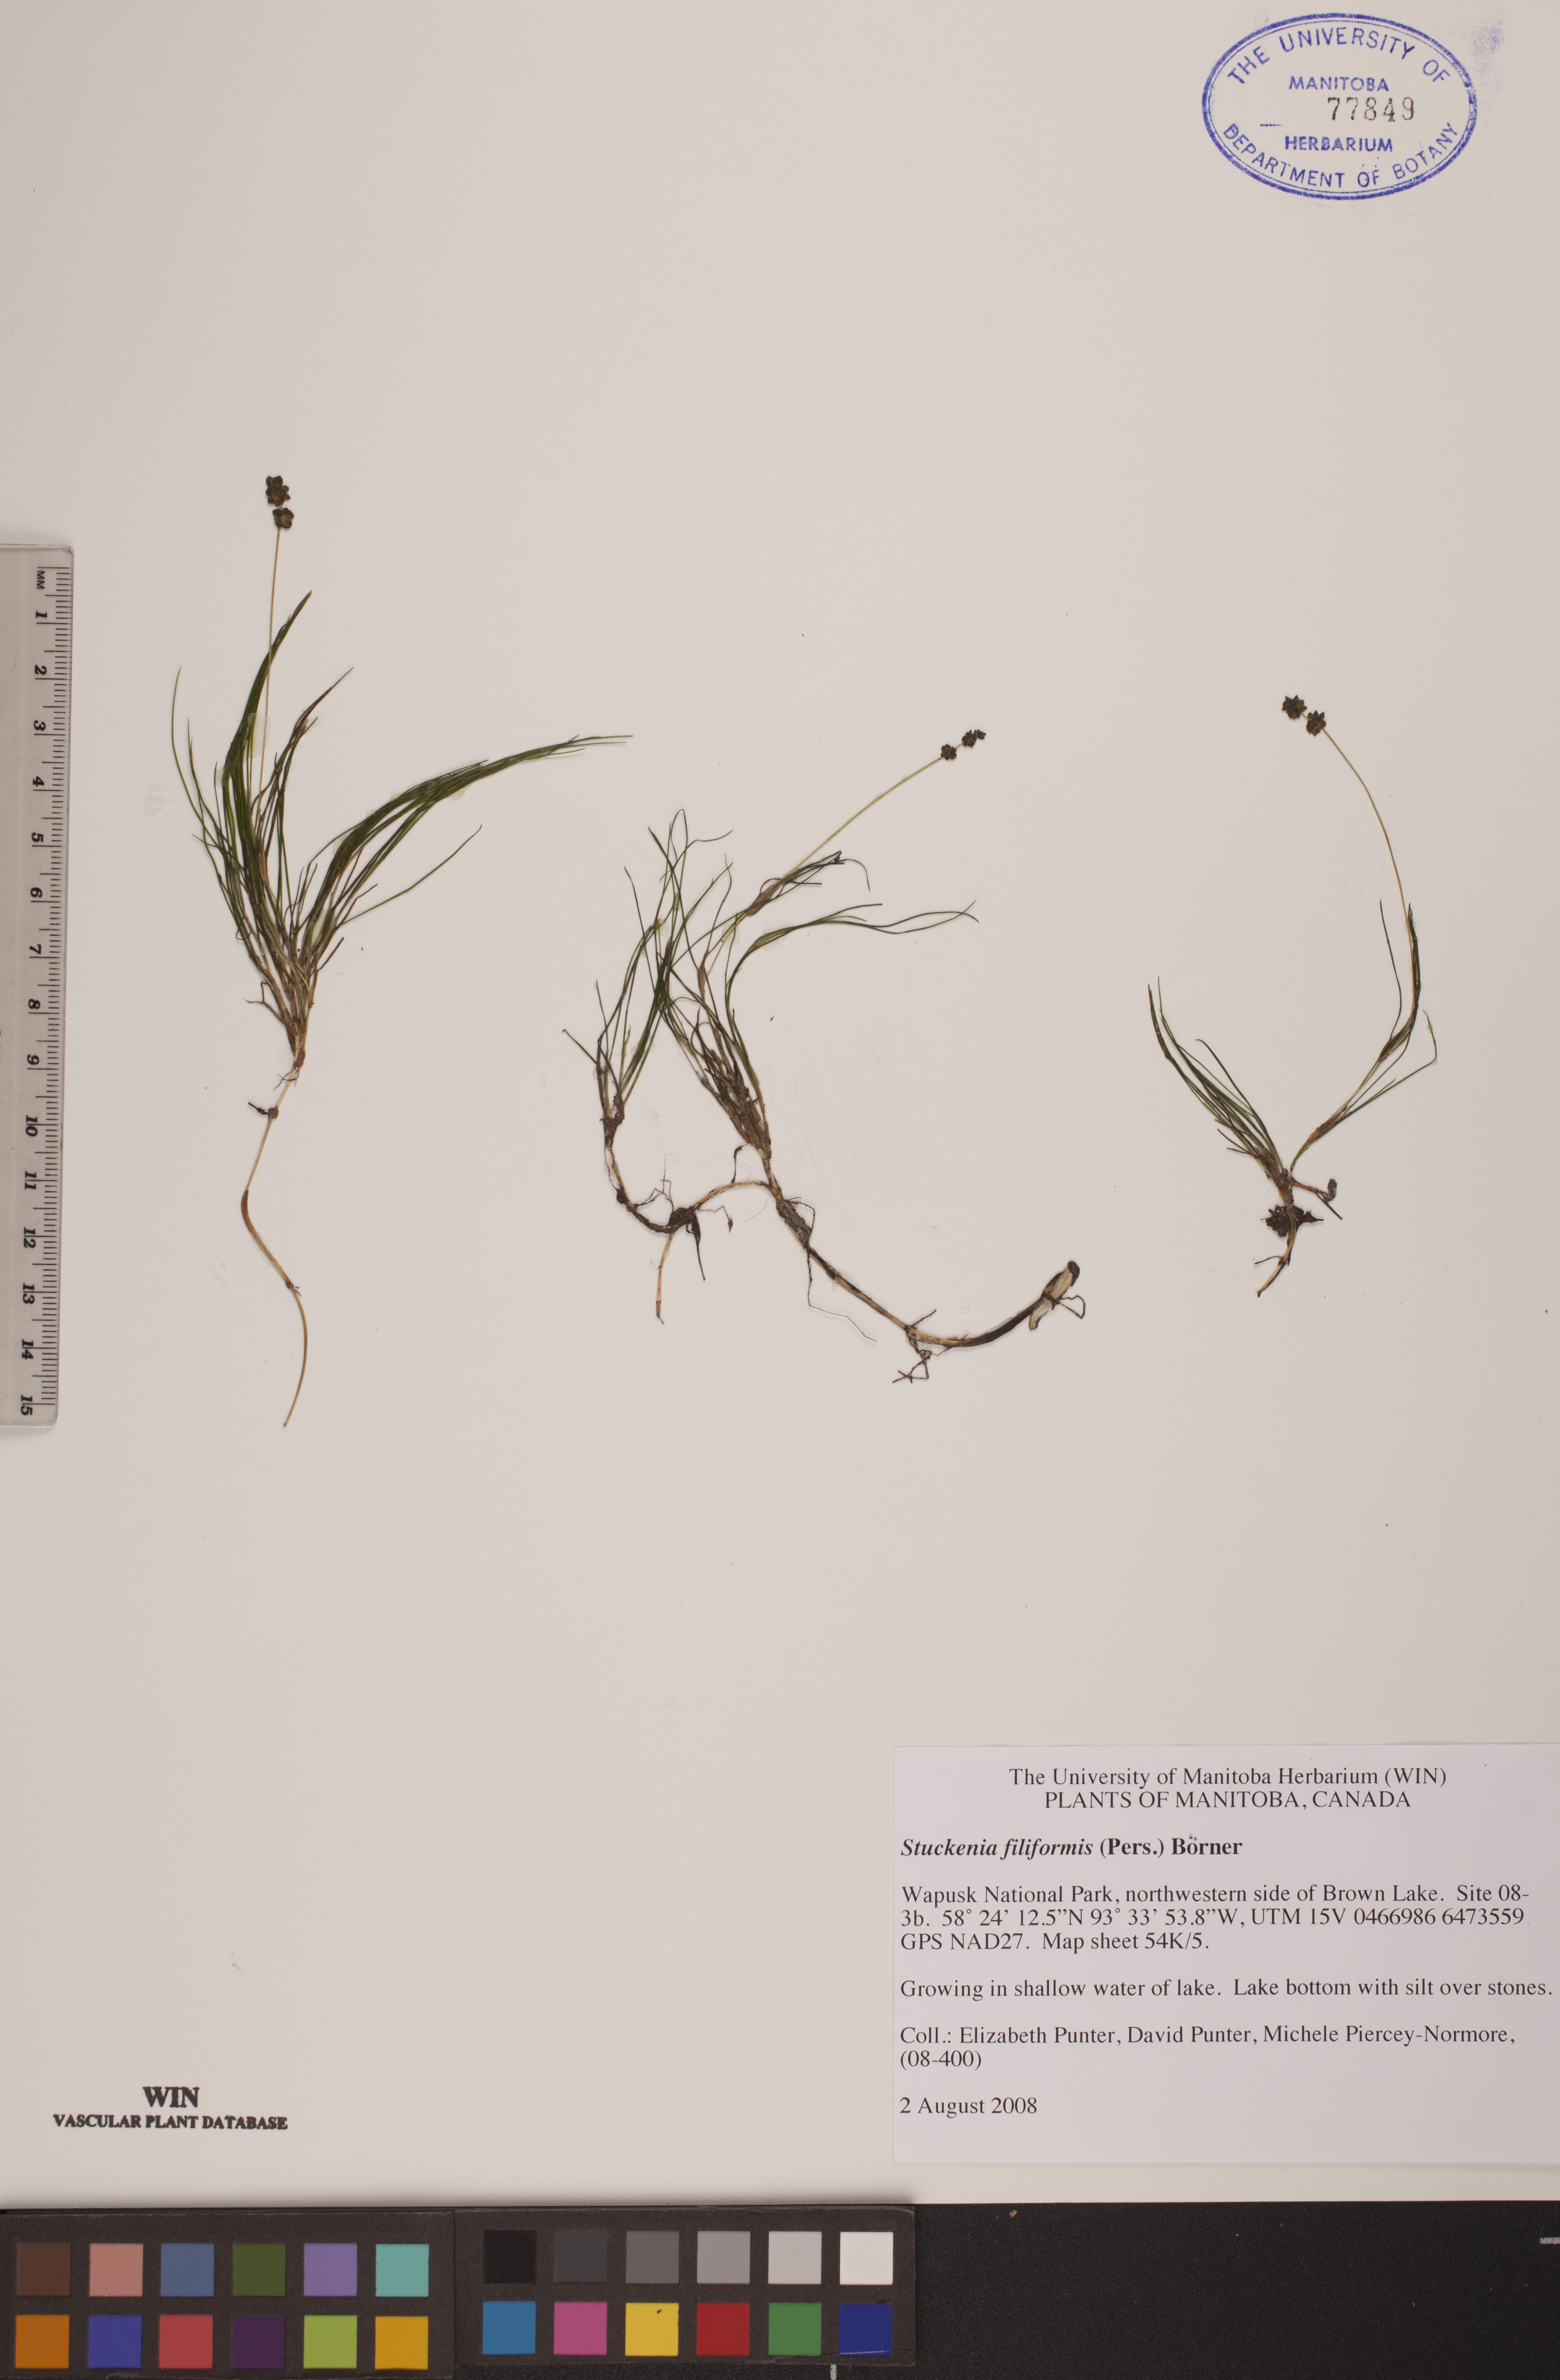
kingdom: Plantae
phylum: Tracheophyta
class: Liliopsida
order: Alismatales
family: Potamogetonaceae
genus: Stuckenia
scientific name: Stuckenia filiformis
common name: Alpine thread-leaved pondweed
